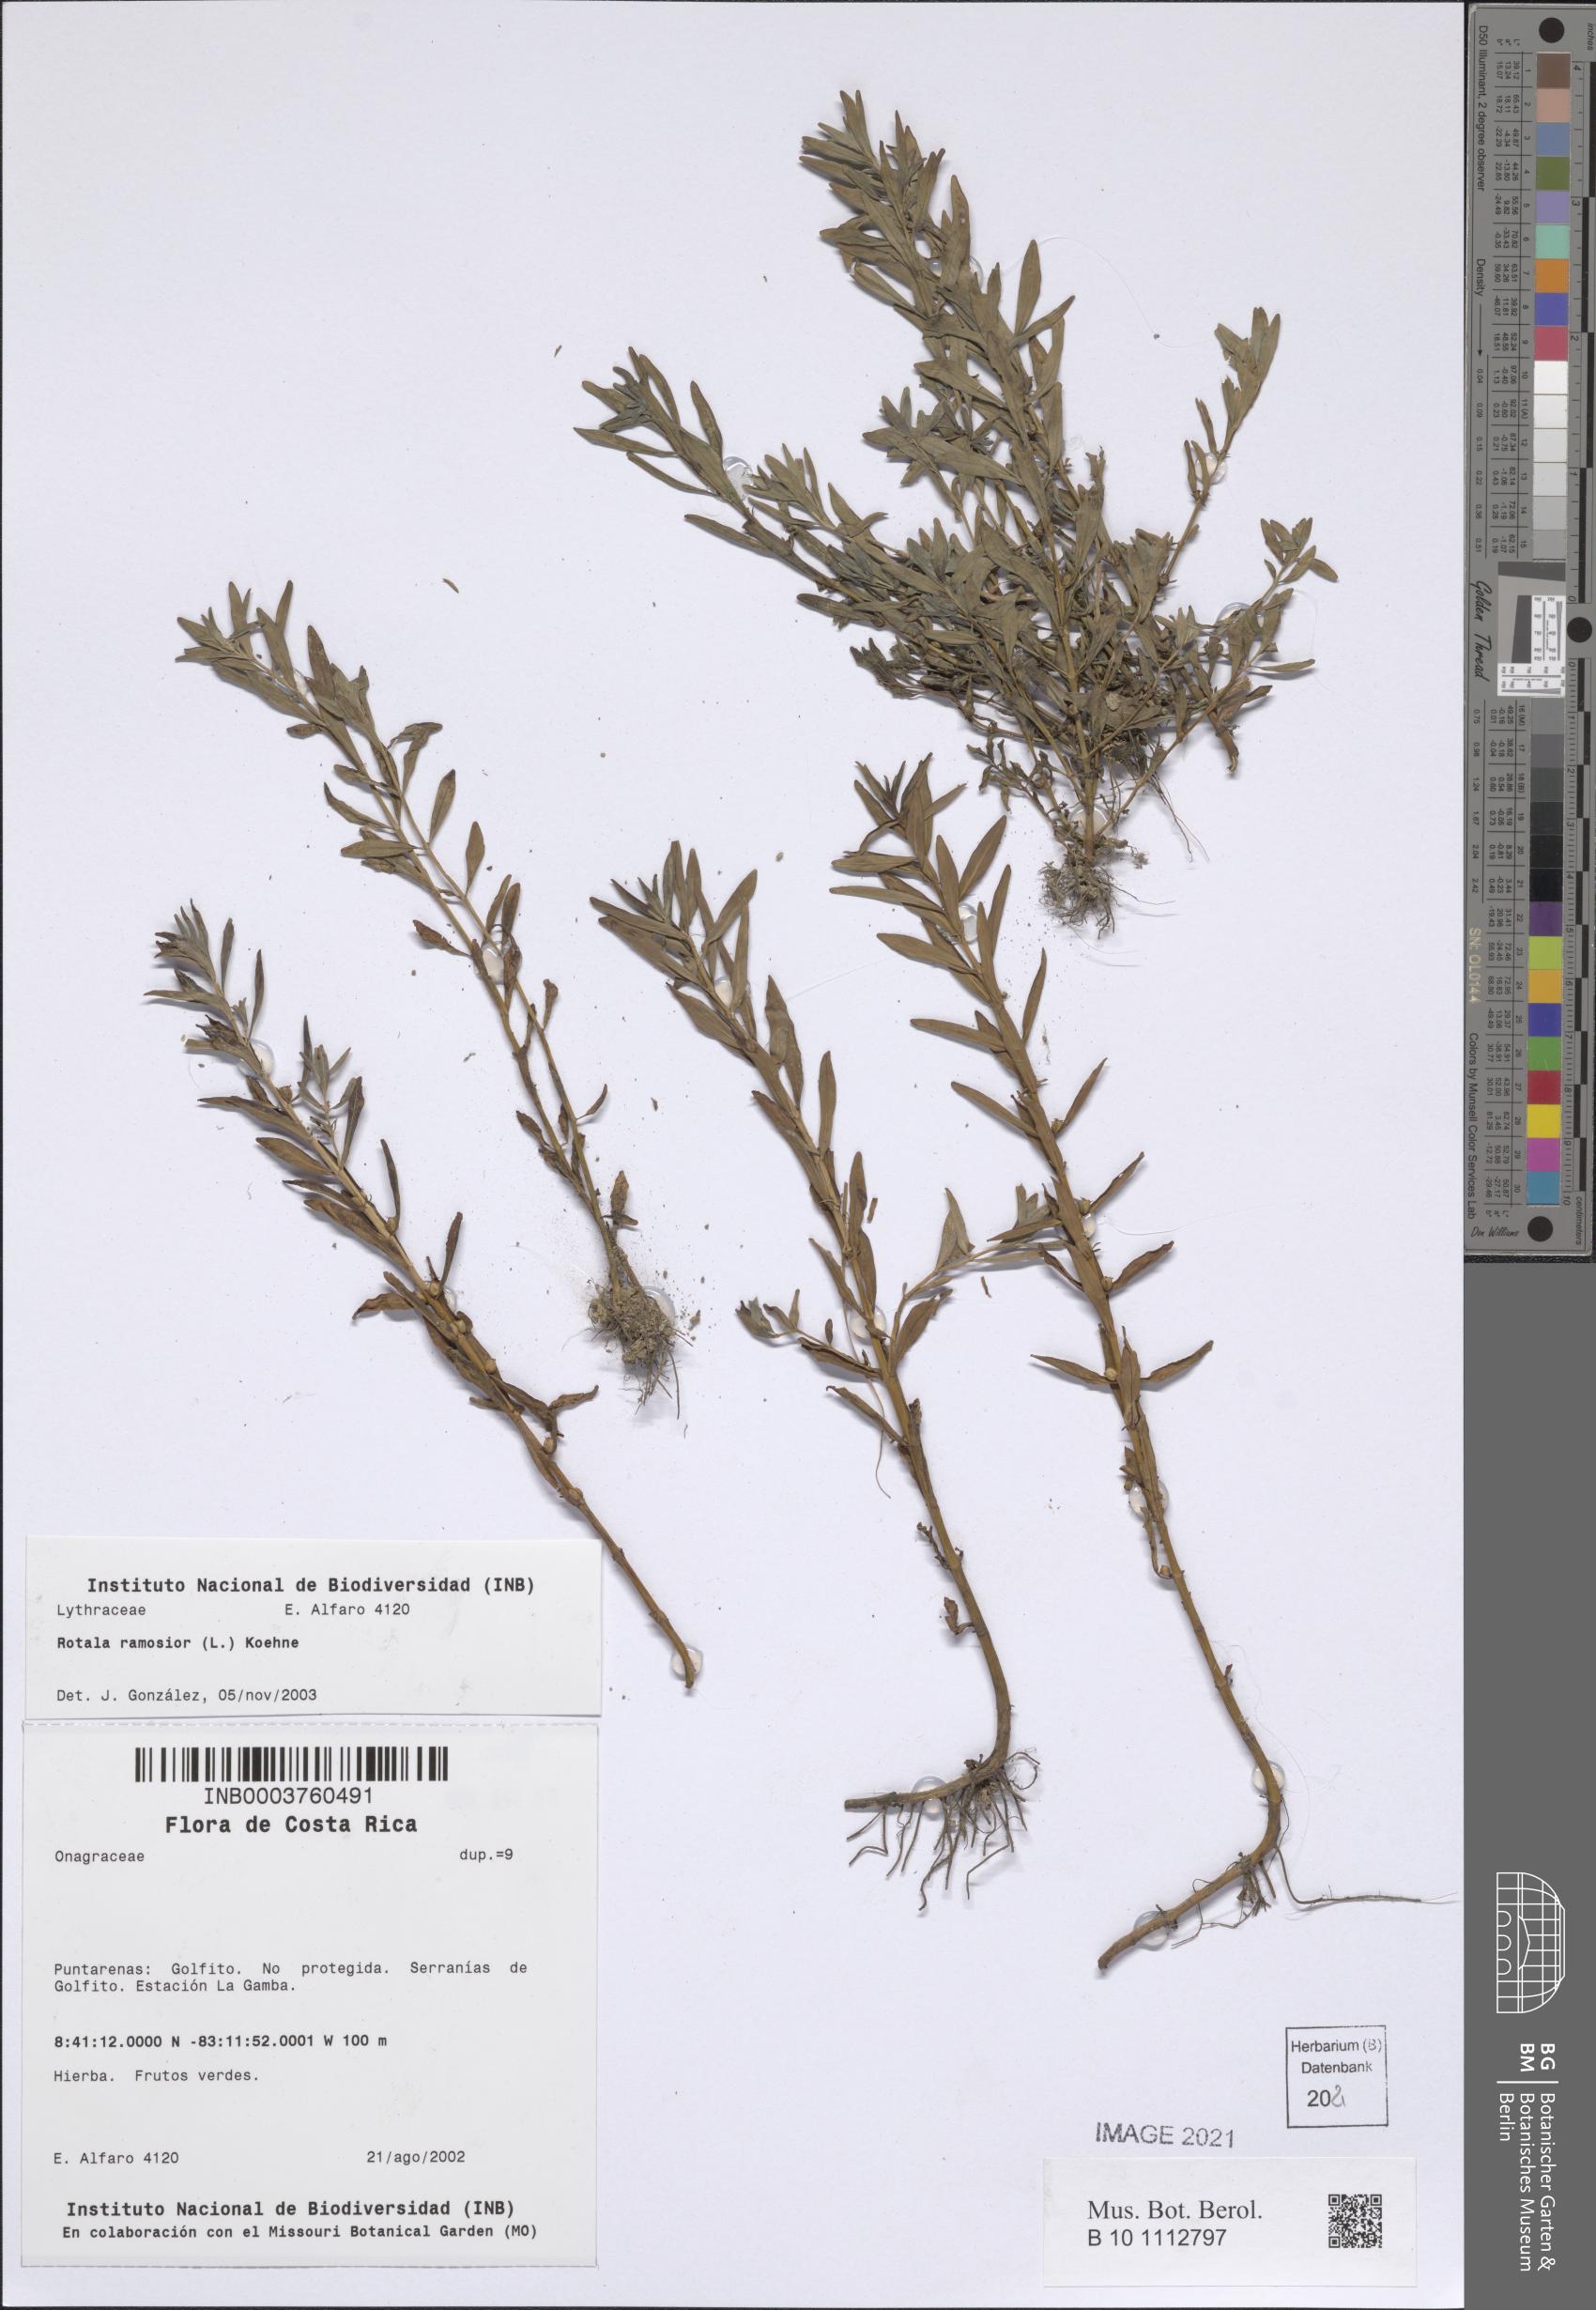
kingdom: Plantae
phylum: Tracheophyta
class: Magnoliopsida
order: Myrtales
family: Lythraceae
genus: Rotala
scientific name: Rotala ramosior
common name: Lowland rotala
